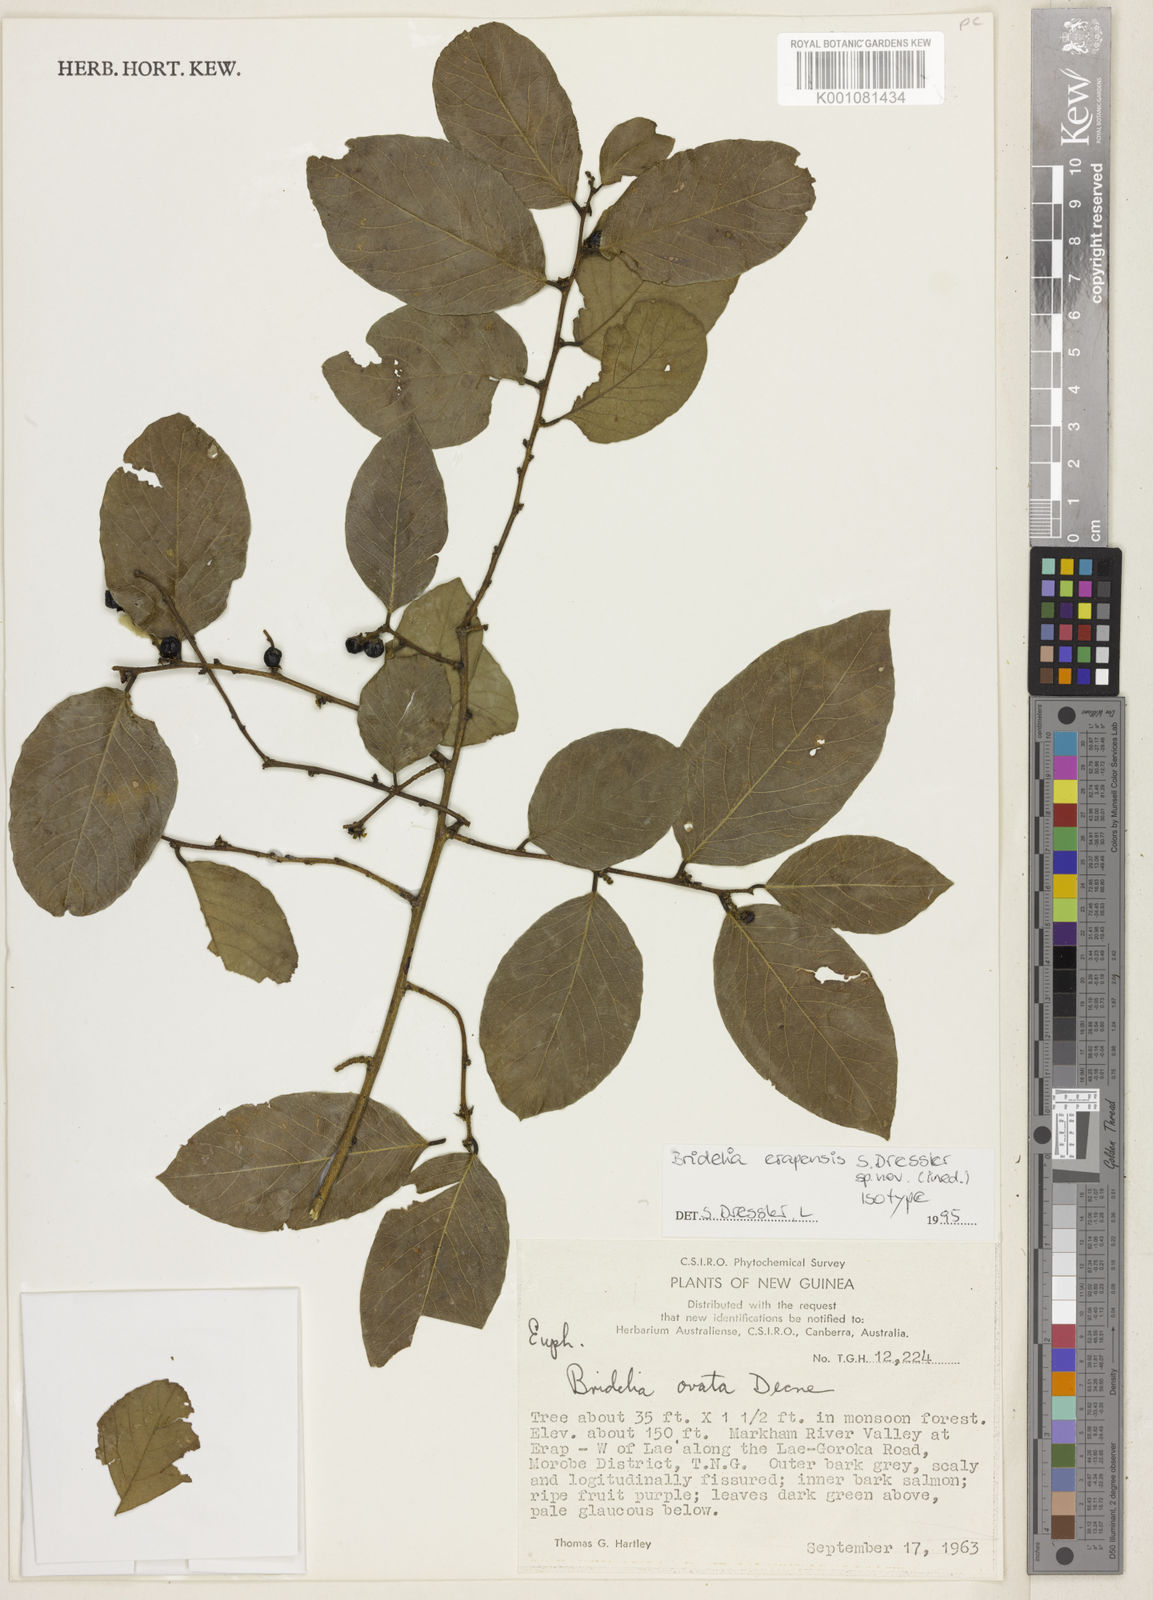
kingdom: Plantae
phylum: Tracheophyta
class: Magnoliopsida
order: Malpighiales
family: Phyllanthaceae
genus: Bridelia
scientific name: Bridelia erapensis
